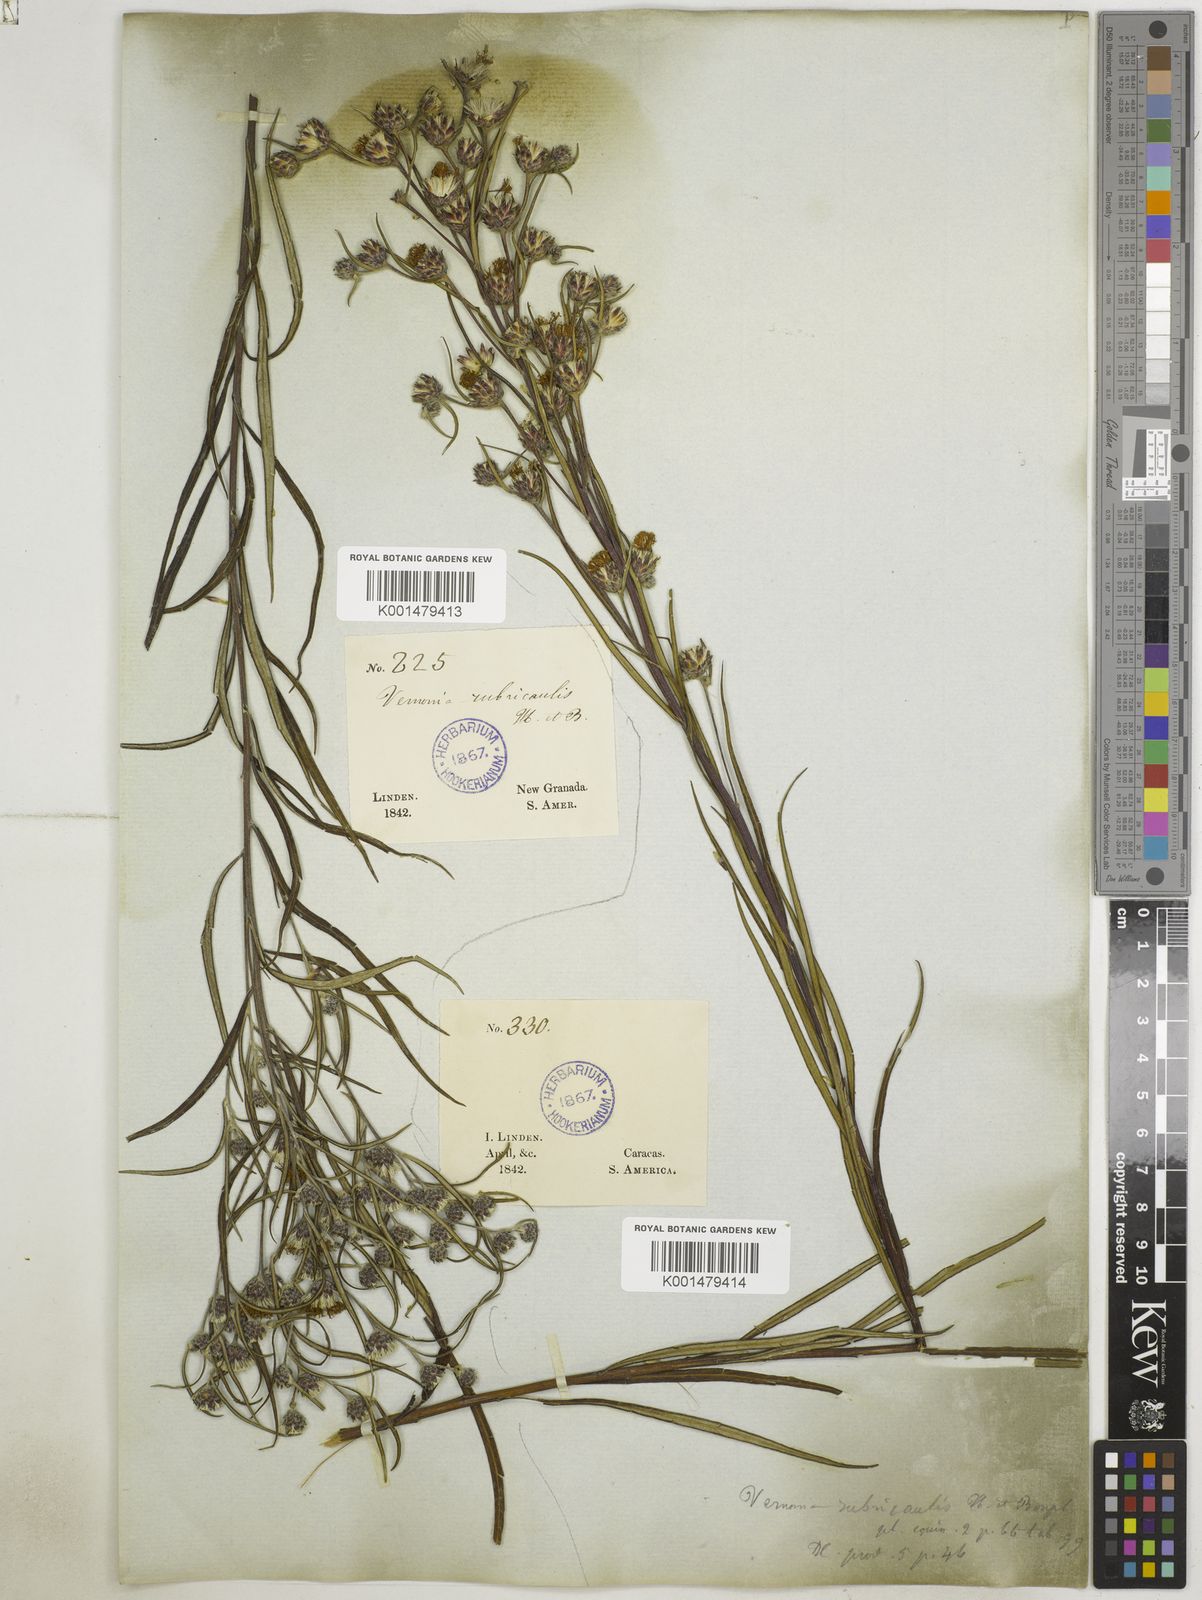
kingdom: Plantae
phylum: Tracheophyta
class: Magnoliopsida
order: Asterales
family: Asteraceae
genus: Lessingianthus
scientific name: Lessingianthus rubricaulis
